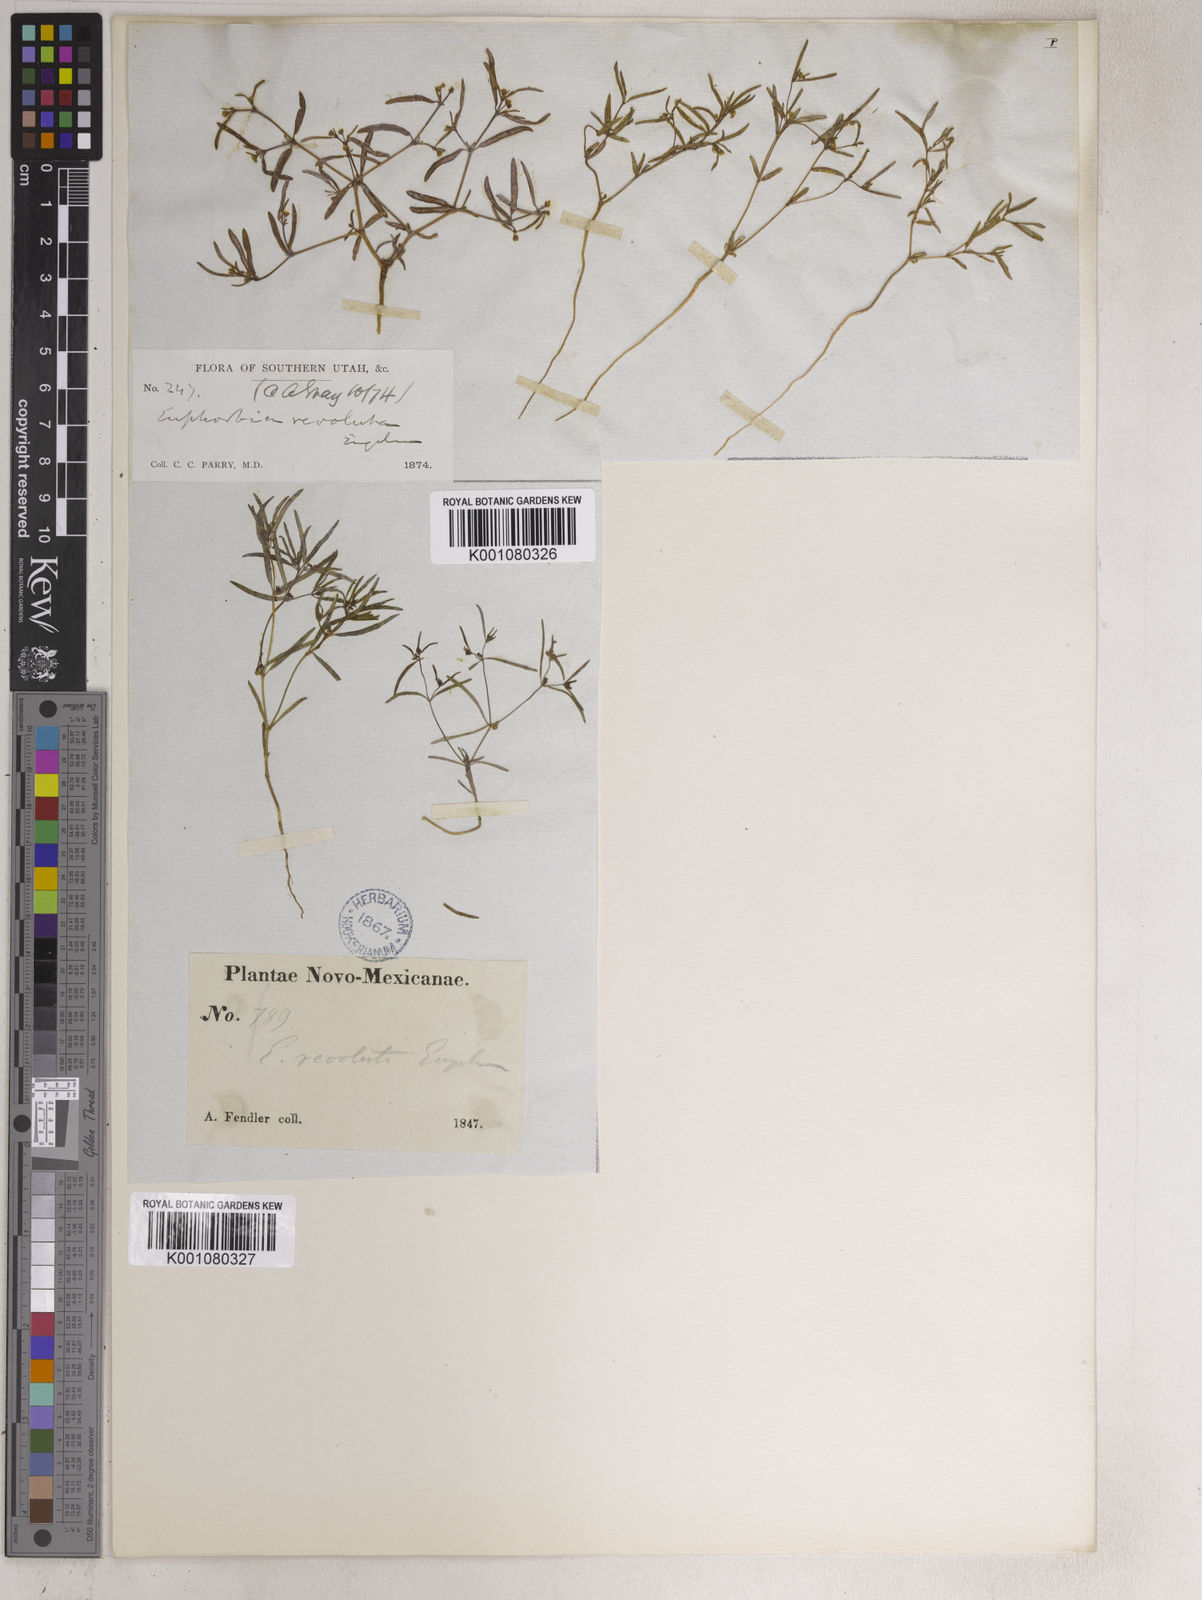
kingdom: Plantae
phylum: Tracheophyta
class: Magnoliopsida
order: Malpighiales
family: Euphorbiaceae
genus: Euphorbia
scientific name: Euphorbia revoluta
